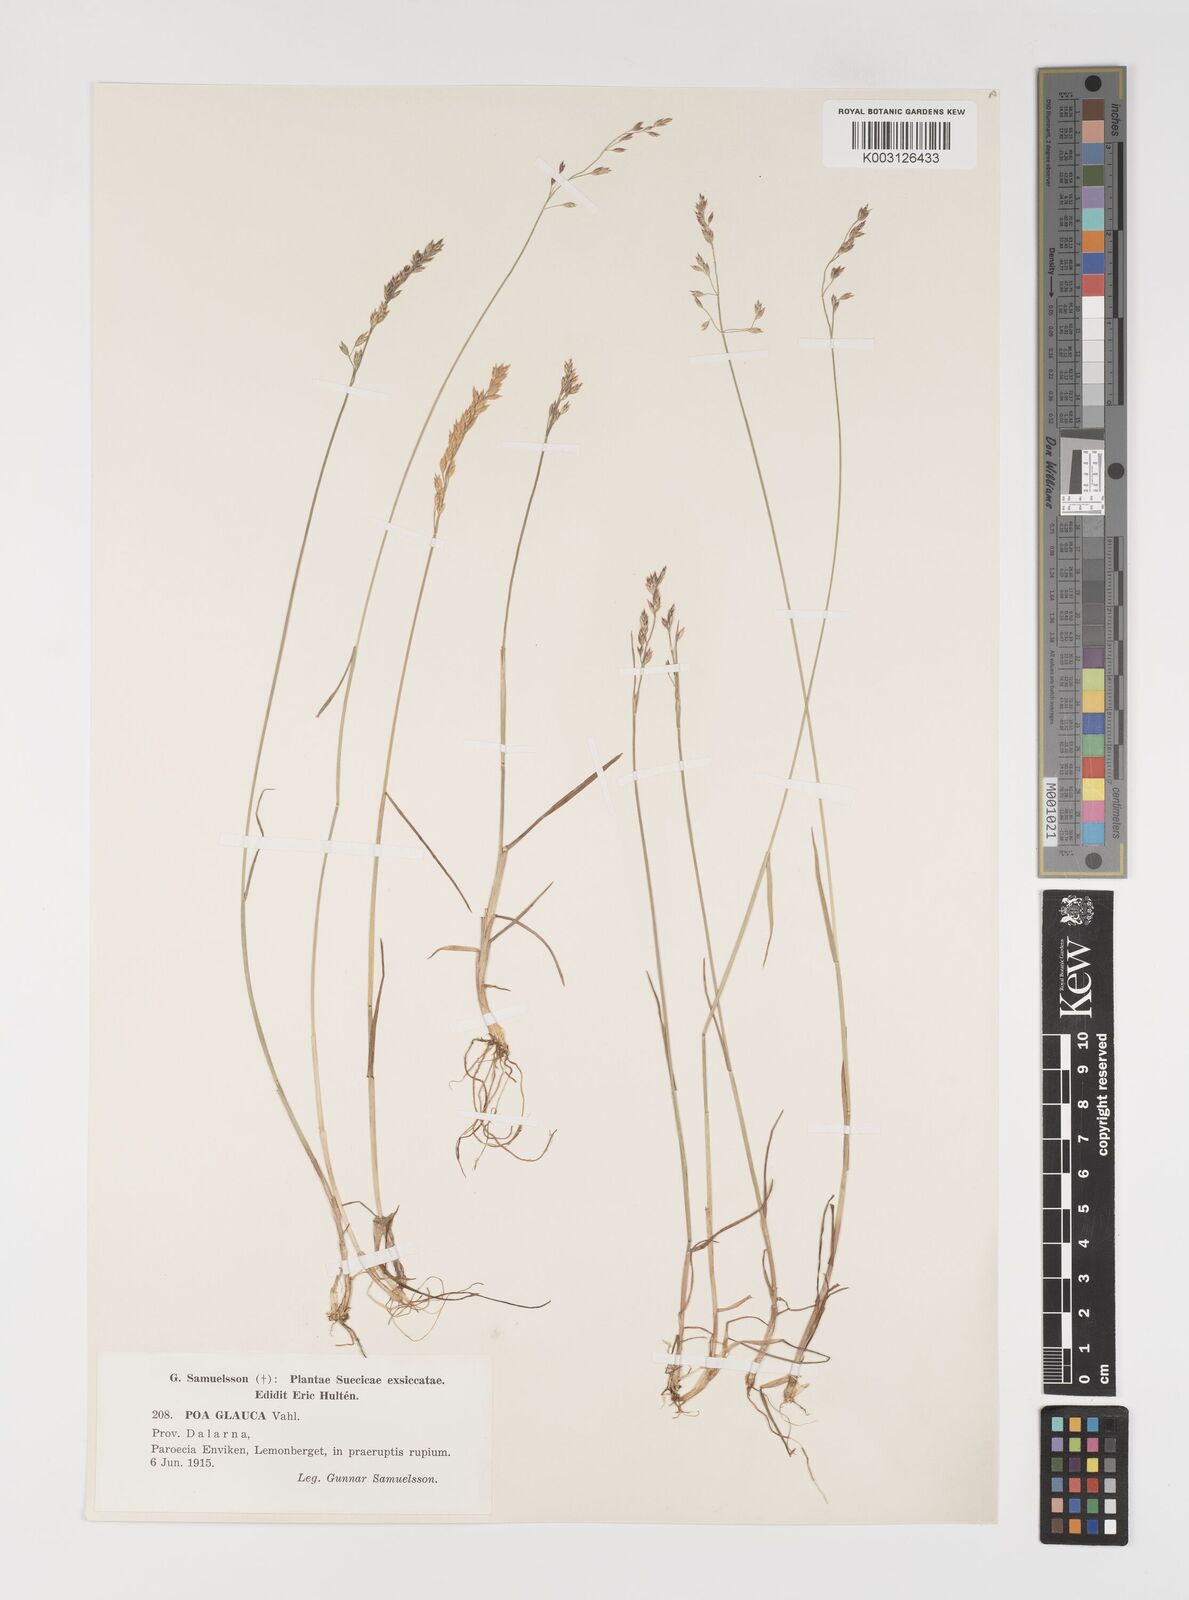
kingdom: Plantae
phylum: Tracheophyta
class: Liliopsida
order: Poales
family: Poaceae
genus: Poa
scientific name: Poa nemoralis
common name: Wood bluegrass
